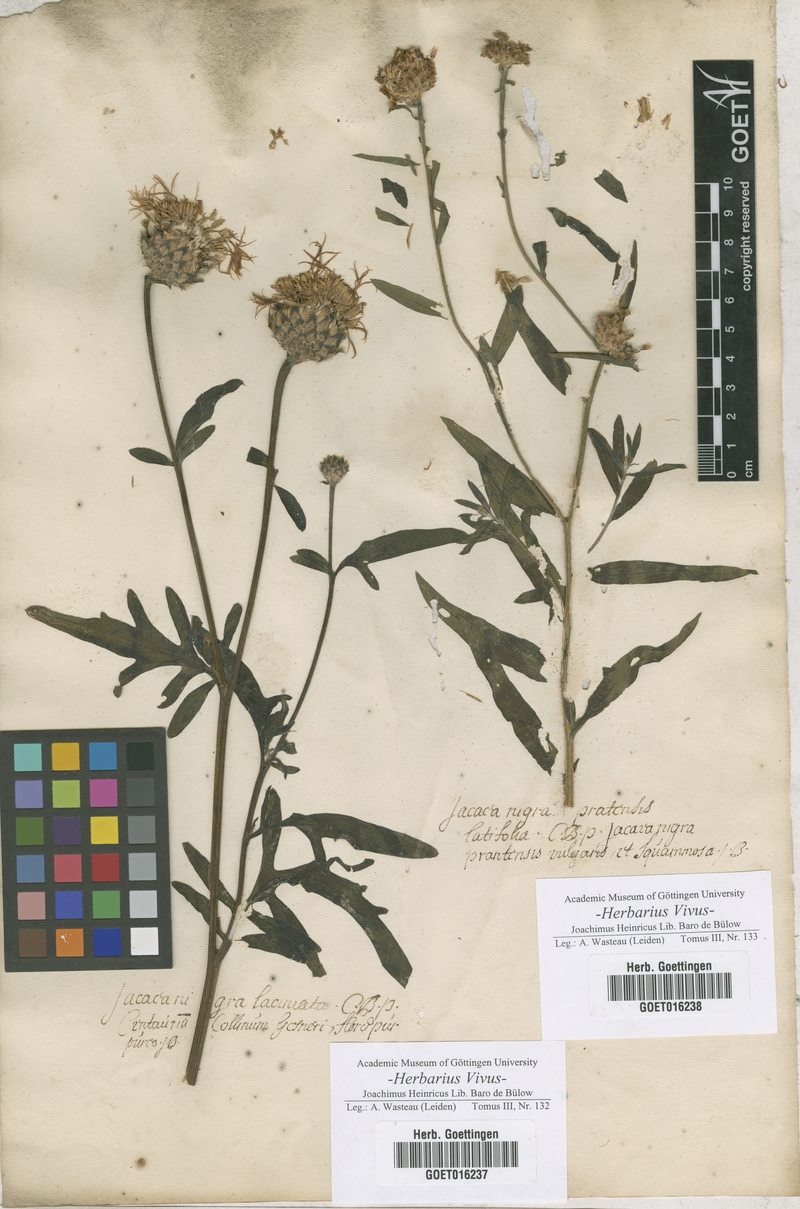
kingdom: Plantae
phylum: Tracheophyta
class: Magnoliopsida
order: Asterales
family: Asteraceae
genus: Centaurea
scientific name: Centaurea nigra
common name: Lesser knapweed
